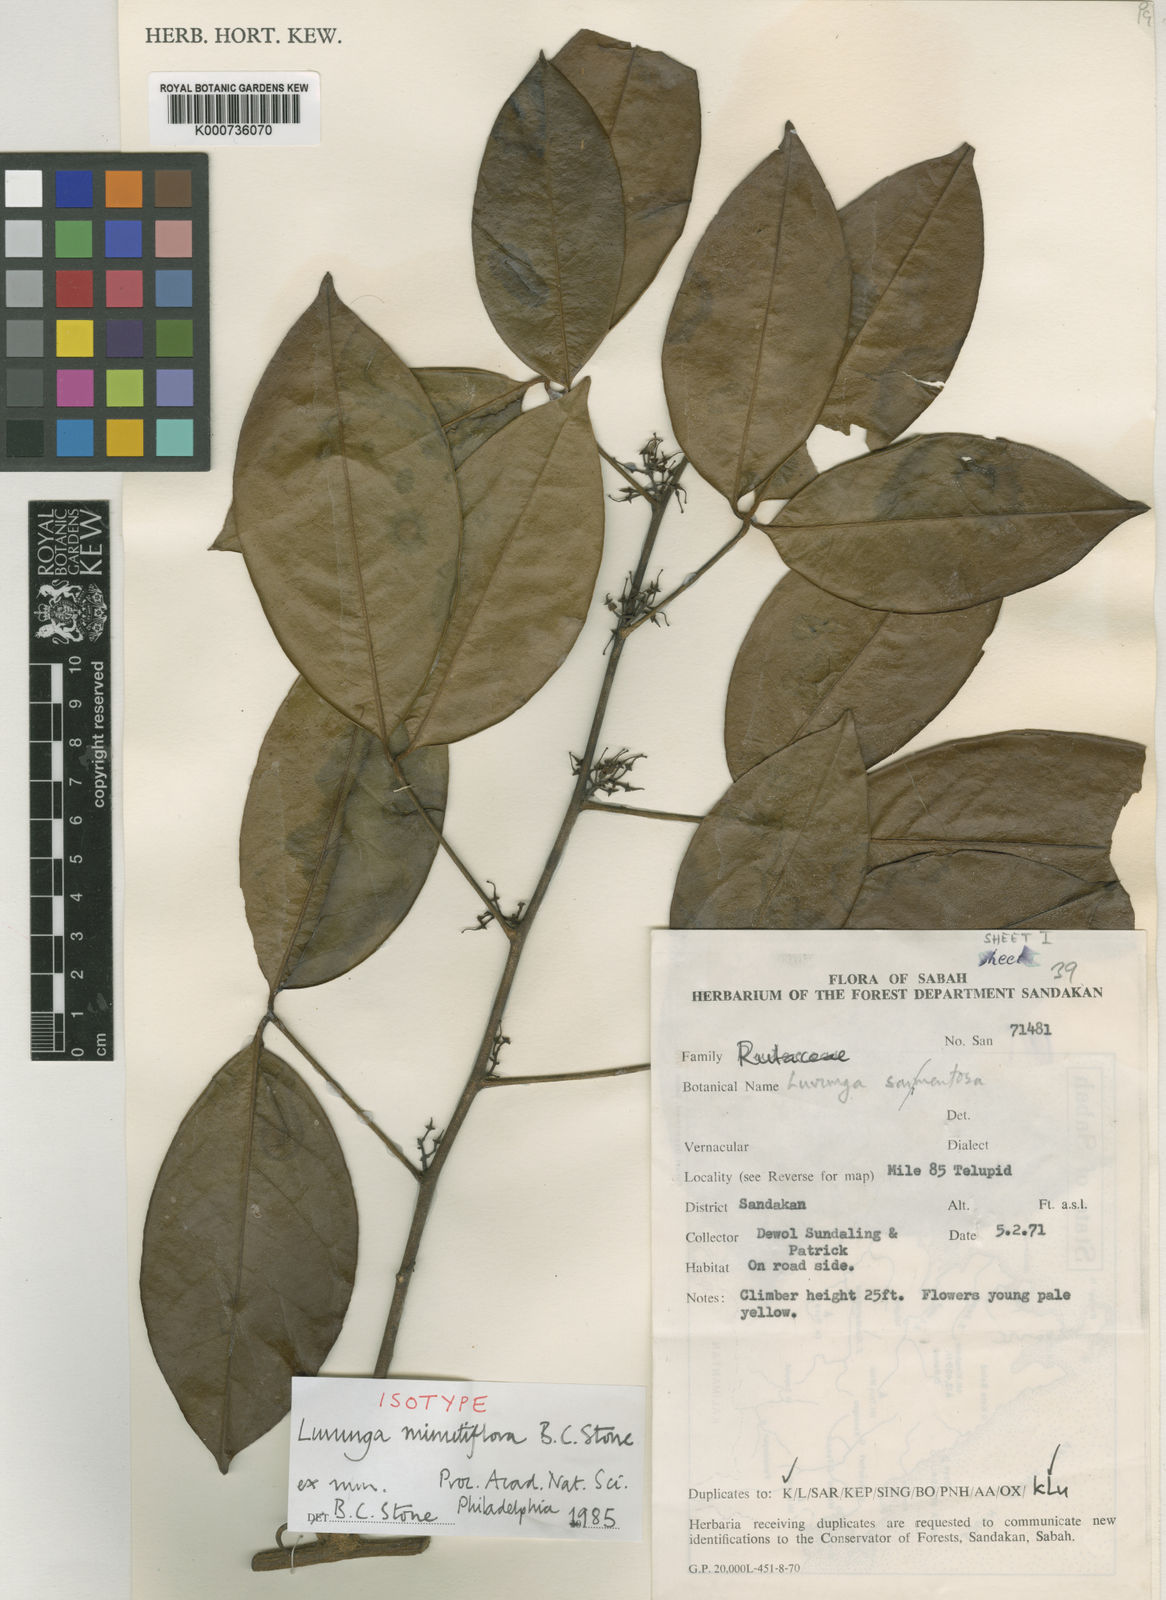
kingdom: Plantae
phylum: Tracheophyta
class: Magnoliopsida
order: Sapindales
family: Rutaceae
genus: Luvunga
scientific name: Luvunga minutiflora
